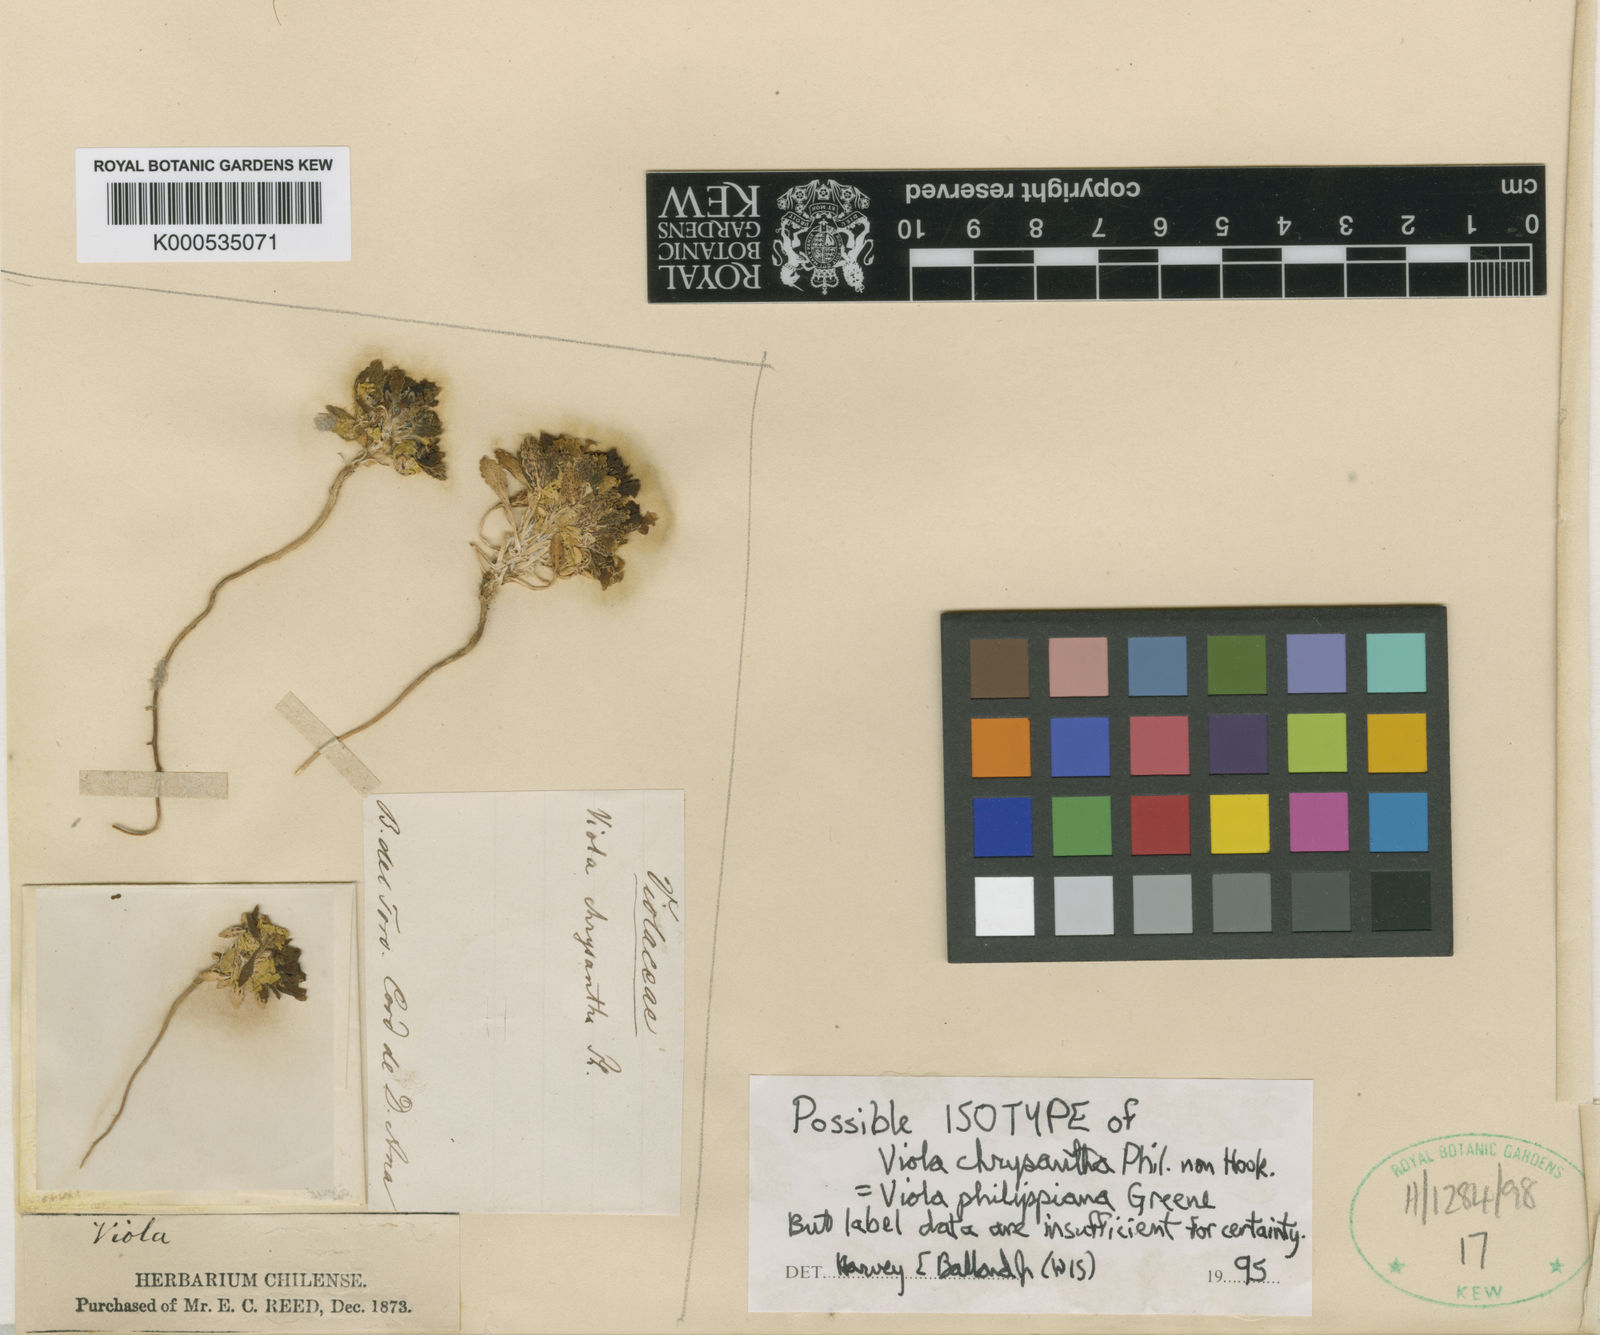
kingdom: Plantae
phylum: Tracheophyta
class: Magnoliopsida
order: Malpighiales
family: Violaceae
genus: Viola
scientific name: Viola philippiana
